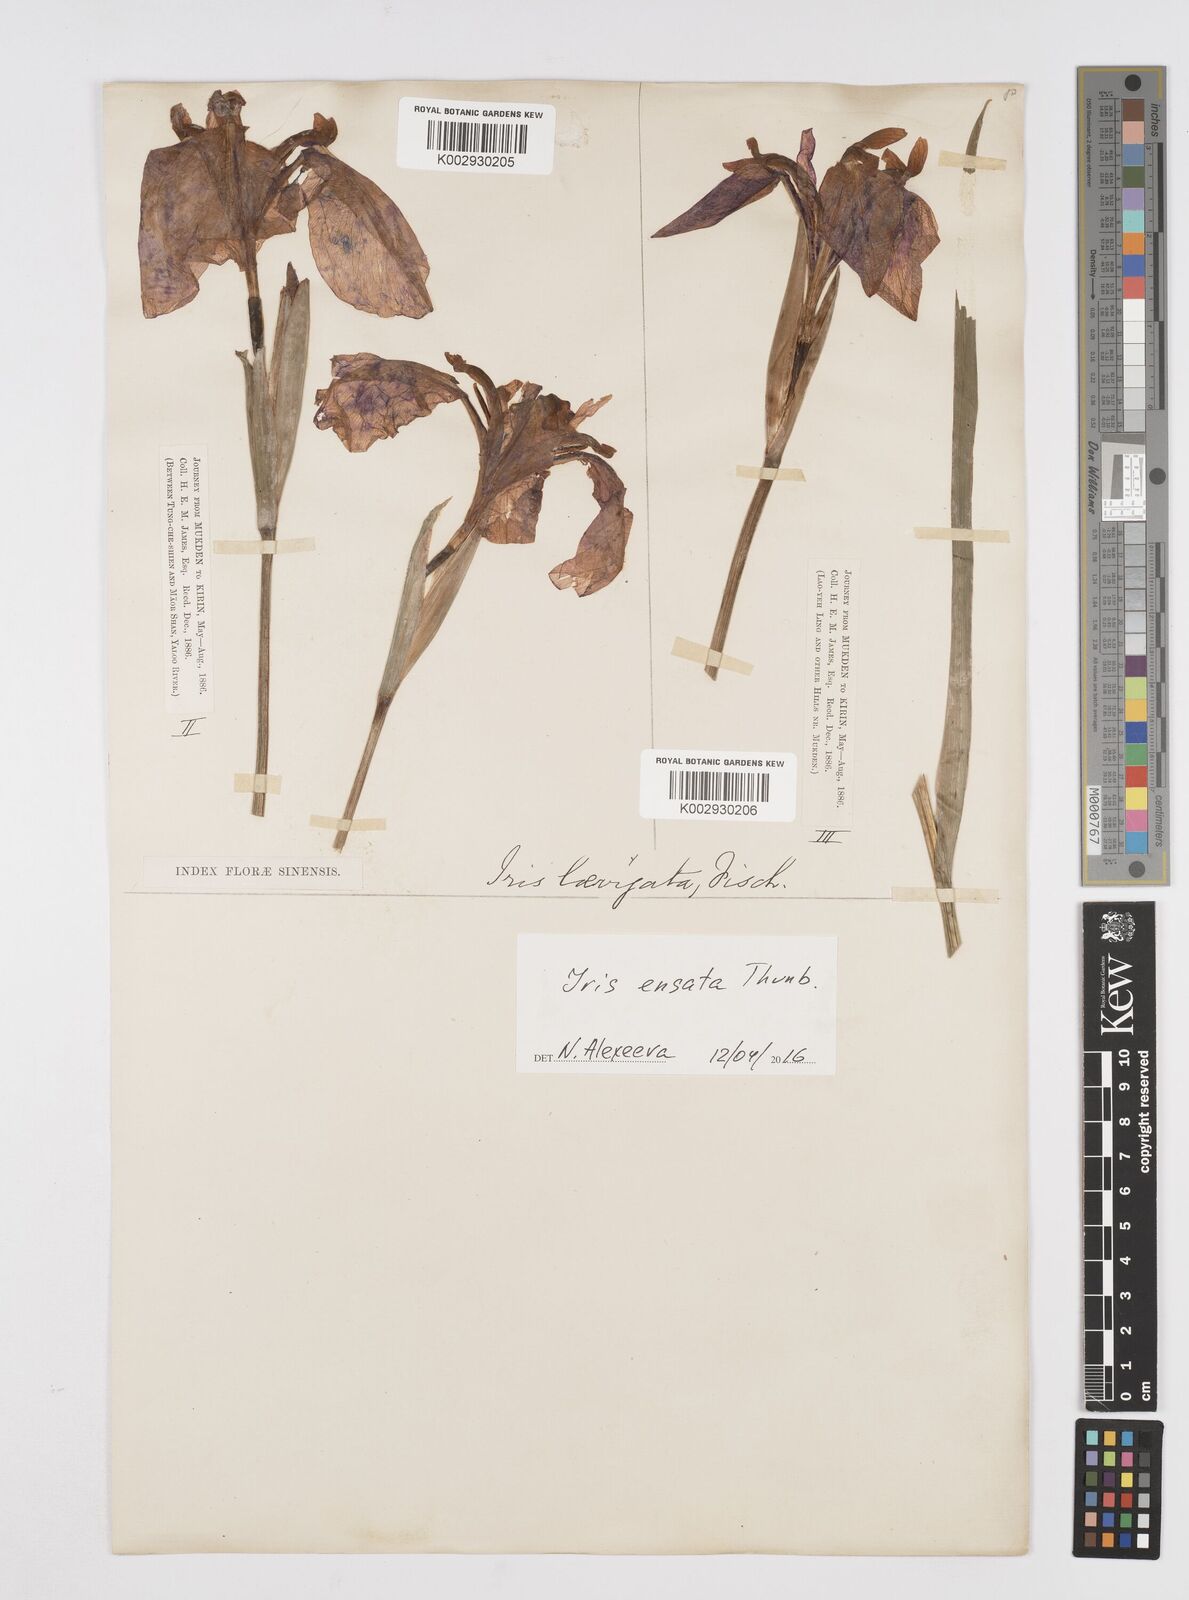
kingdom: Plantae
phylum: Tracheophyta
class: Liliopsida
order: Asparagales
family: Iridaceae
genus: Iris
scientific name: Iris ensata
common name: Beaked iris
